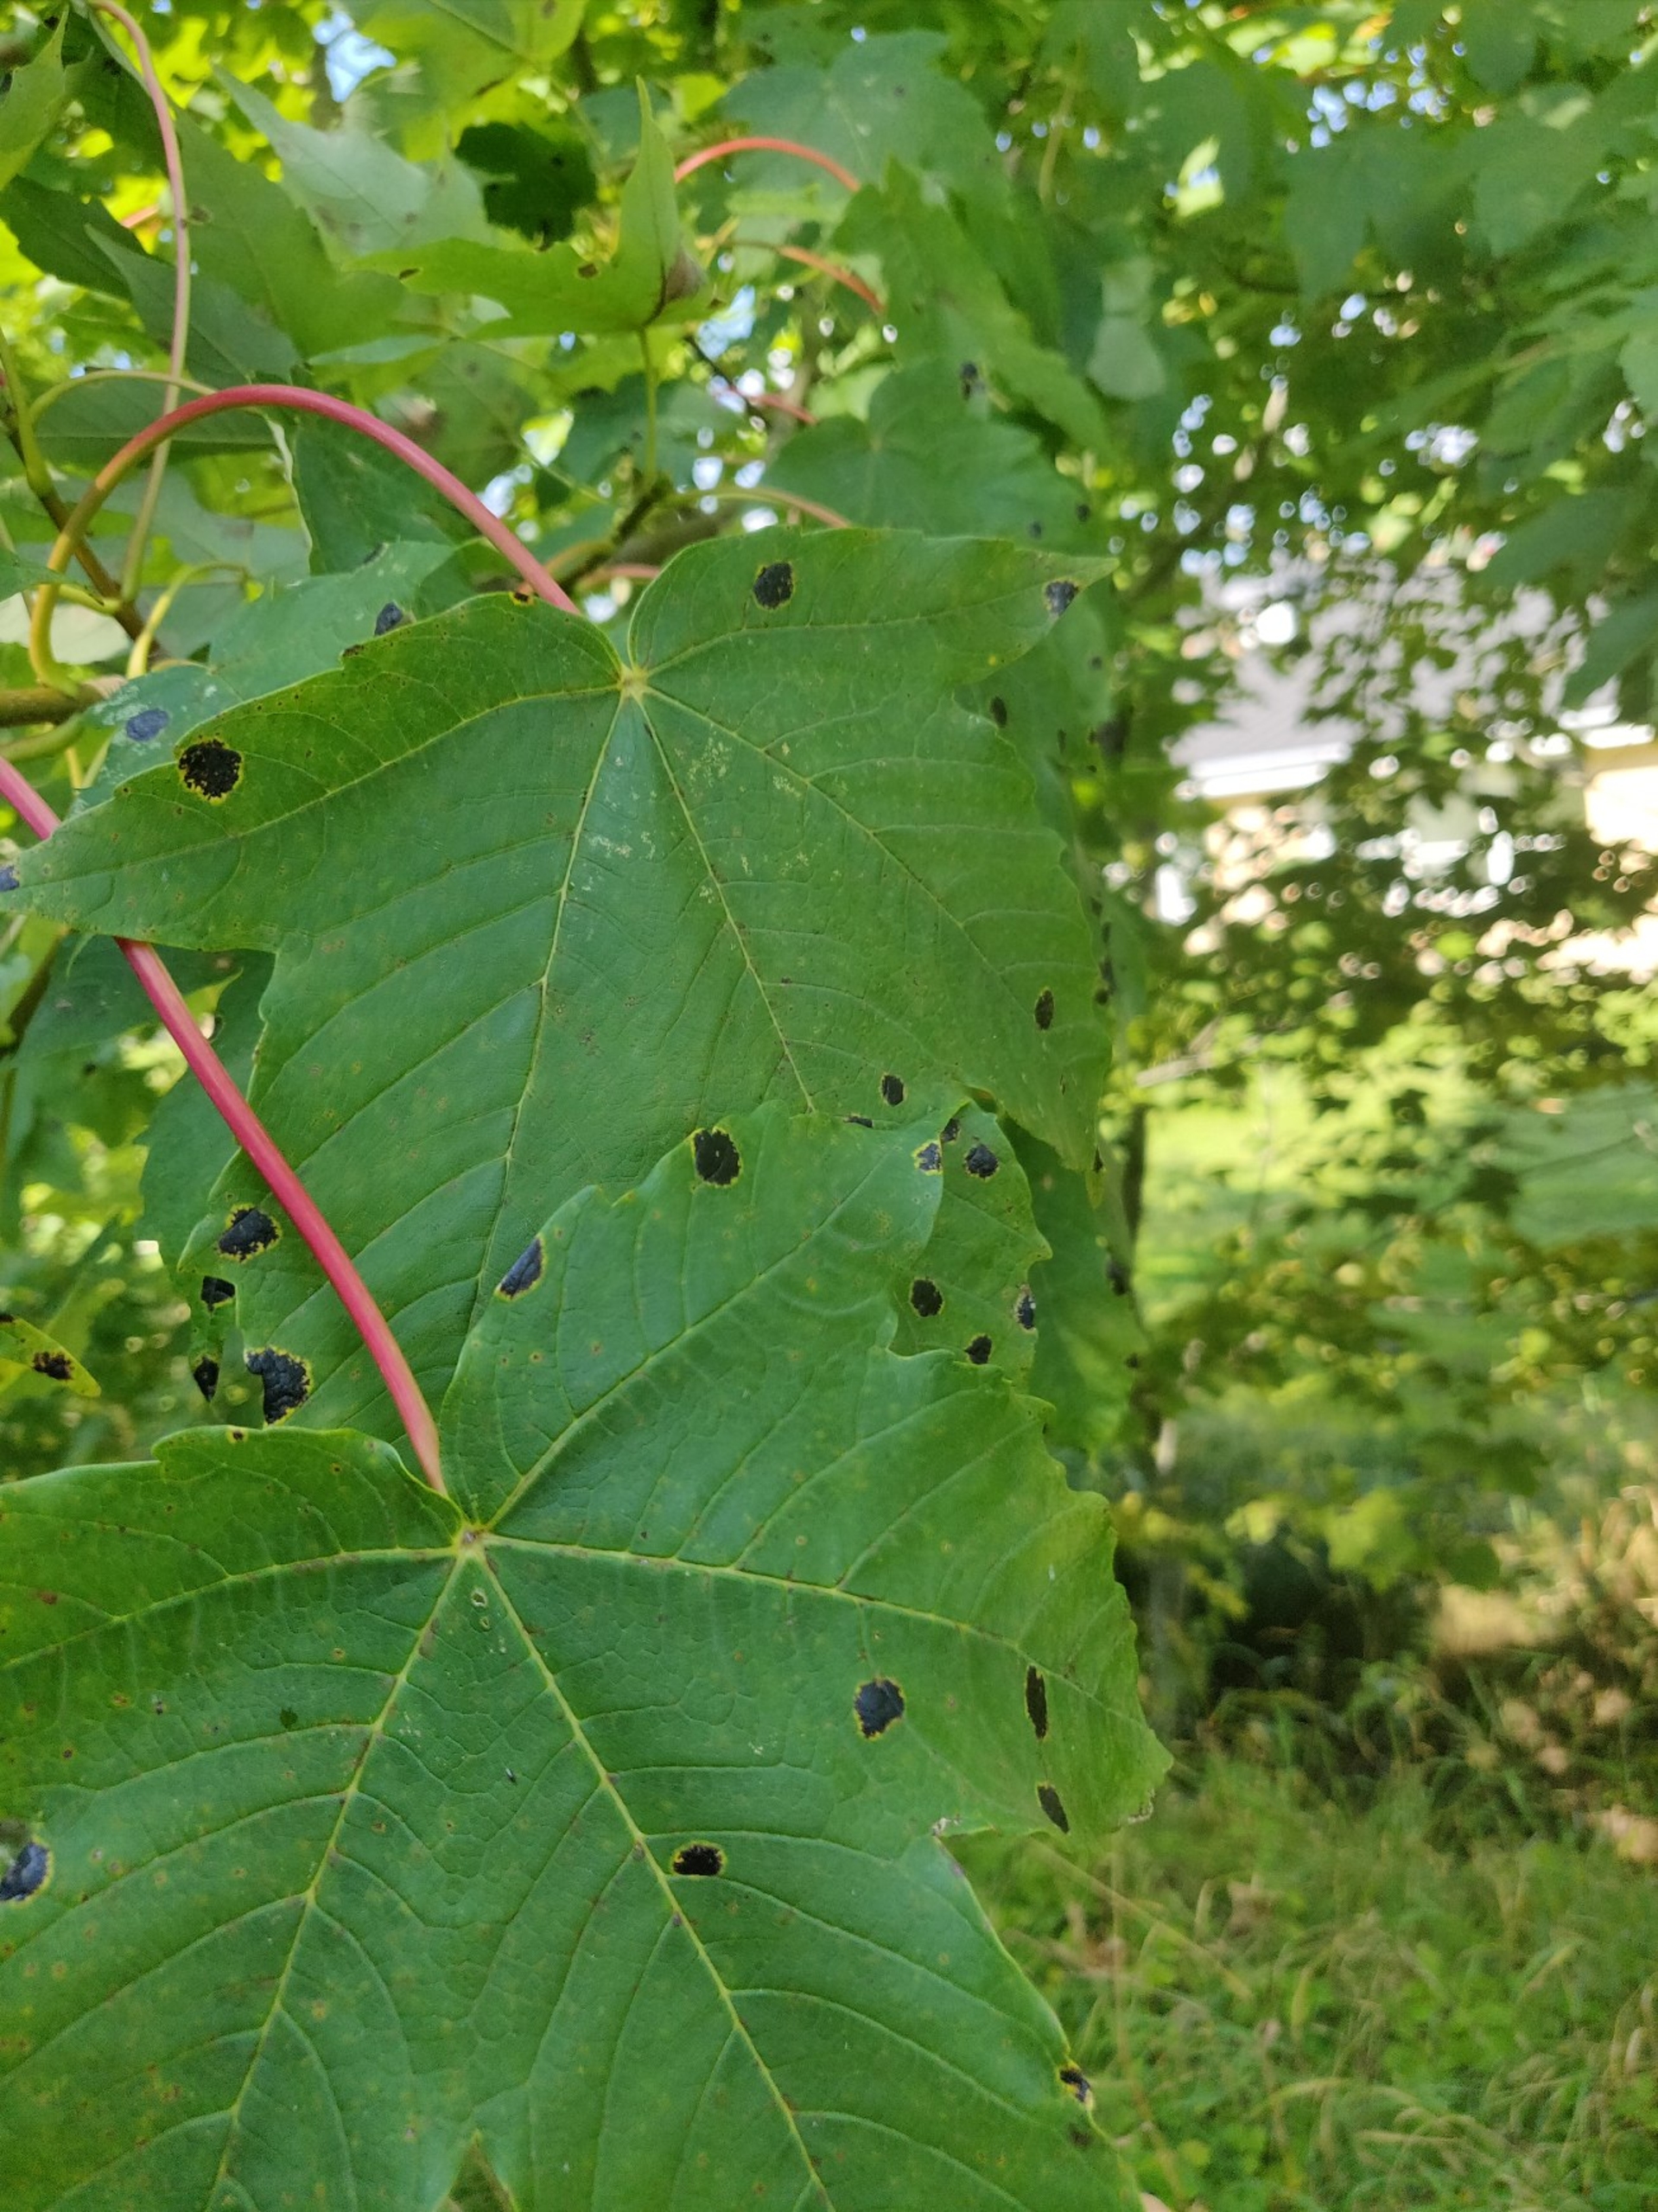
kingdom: Fungi
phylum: Ascomycota
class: Leotiomycetes
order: Rhytismatales
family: Rhytismataceae
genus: Rhytisma
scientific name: Rhytisma acerinum
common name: Ahorn-rynkeplet
